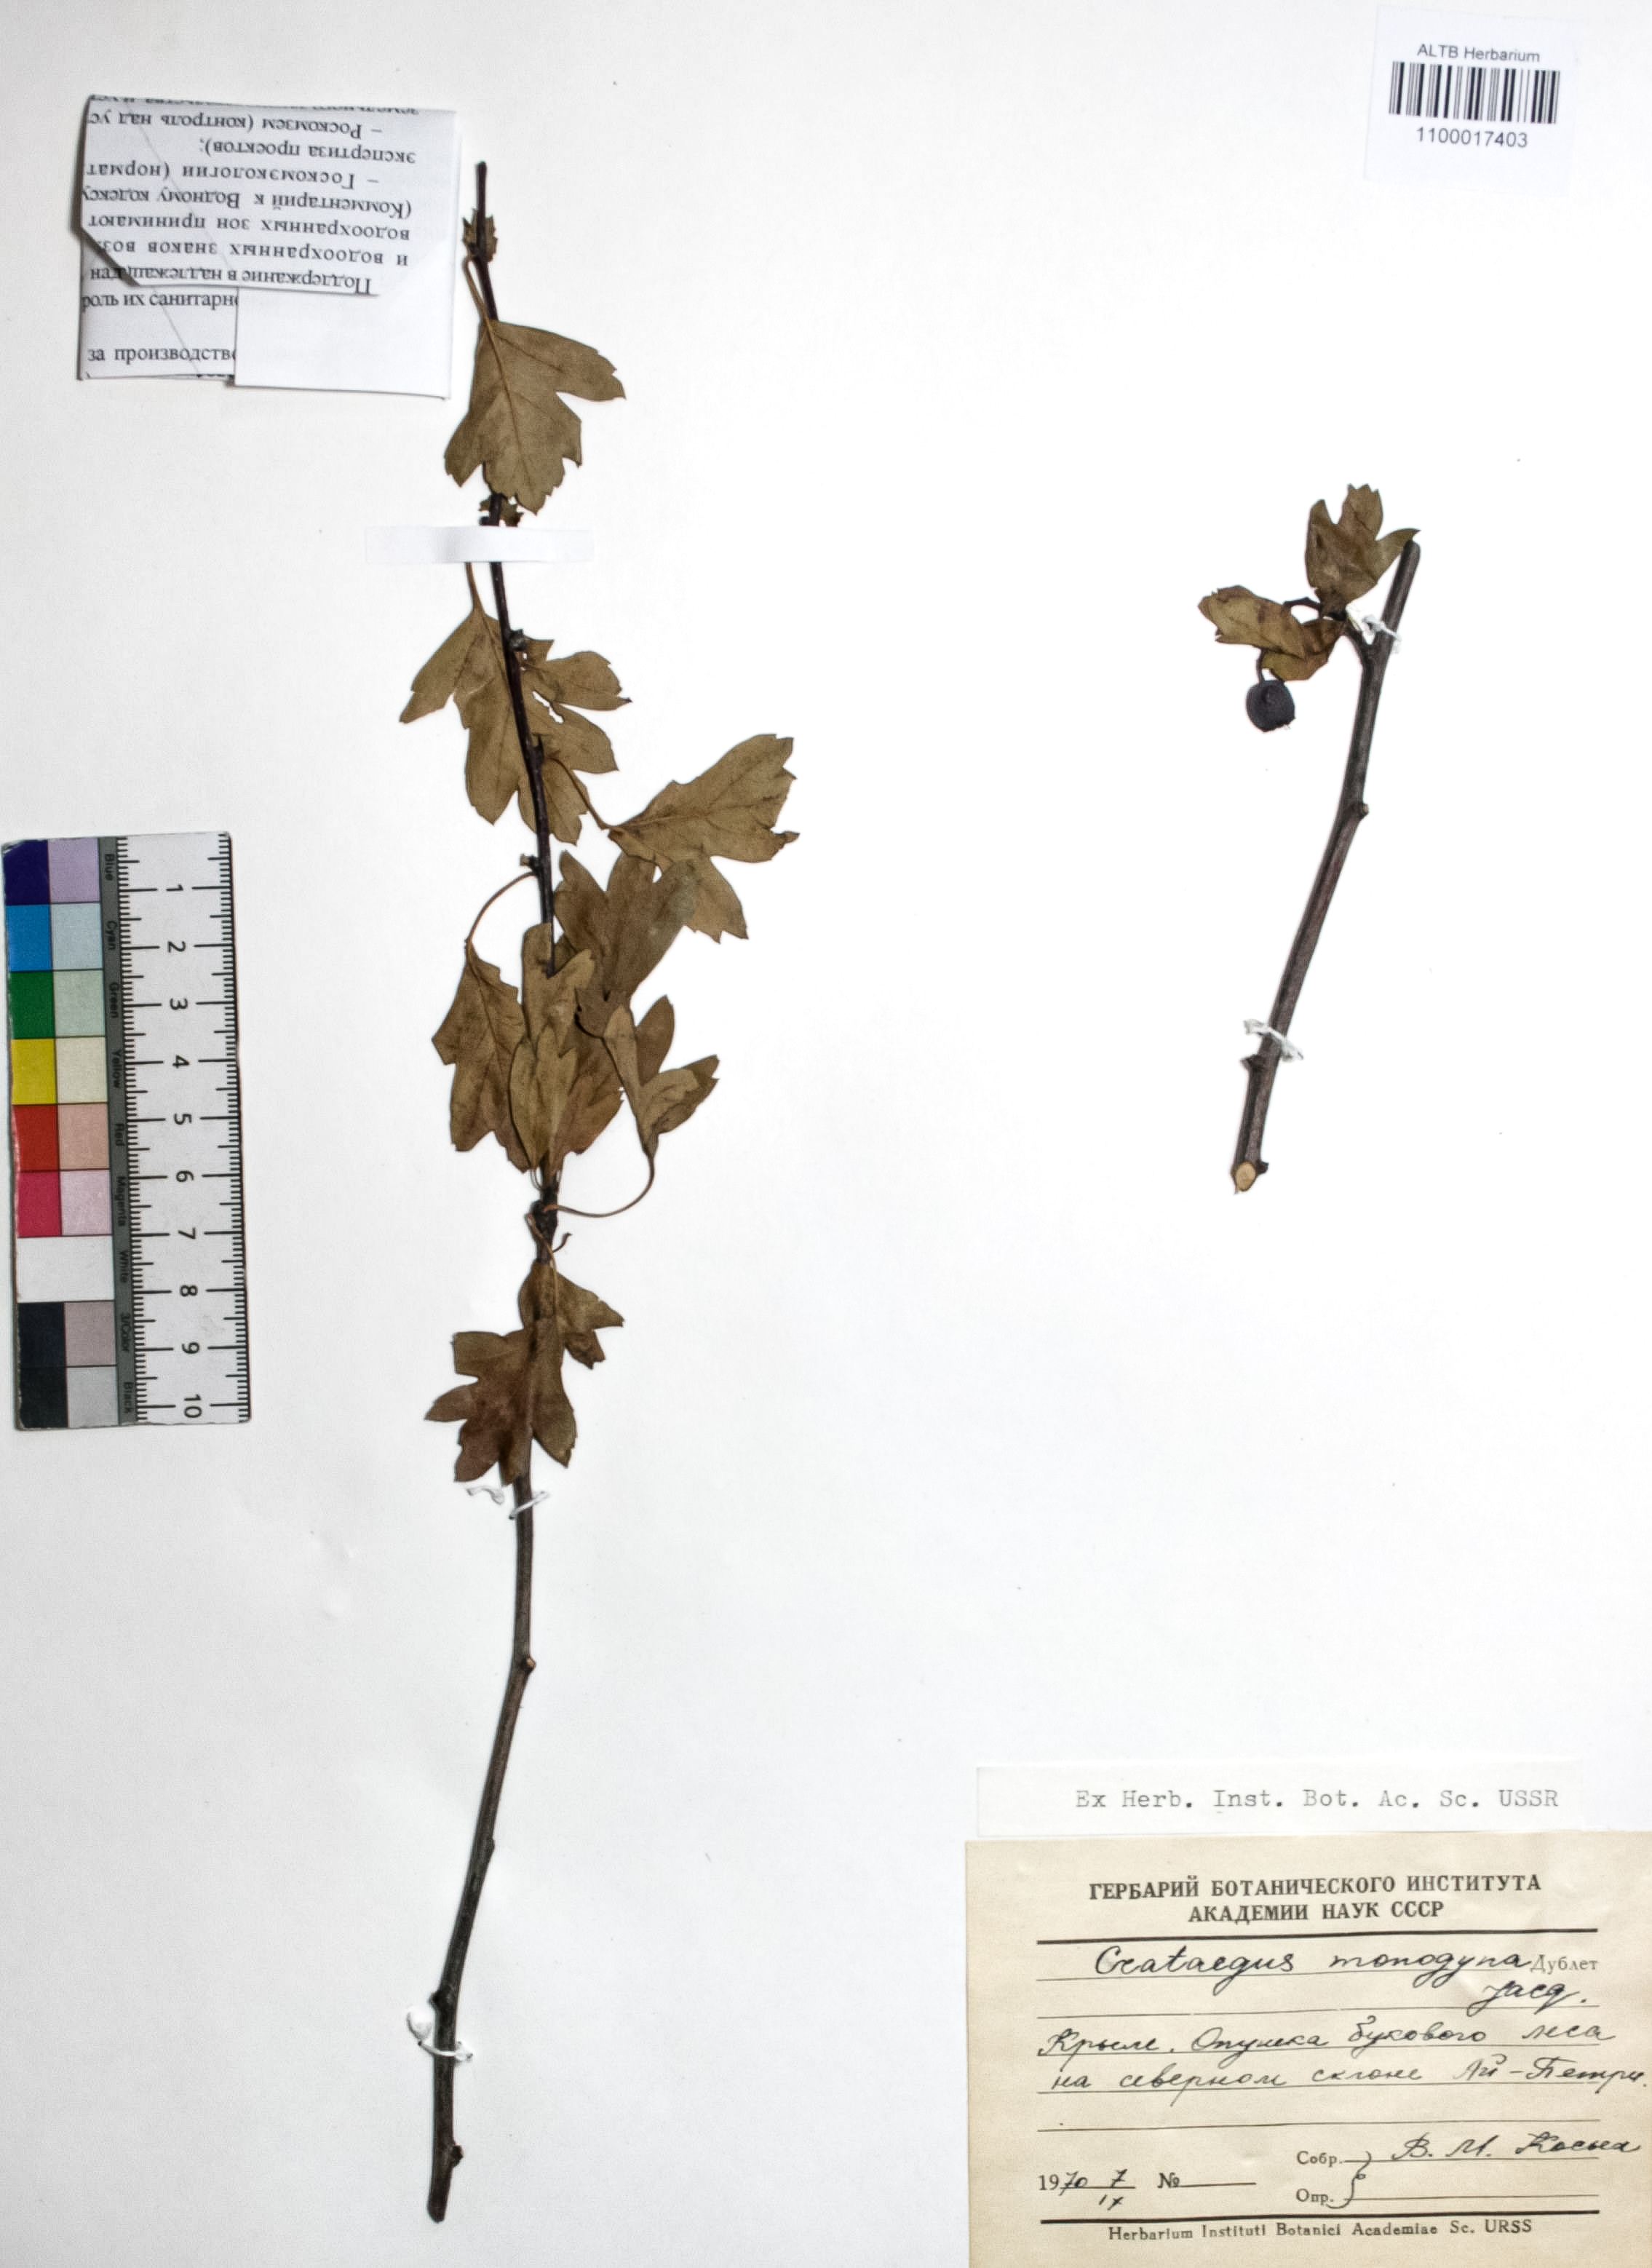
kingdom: Plantae
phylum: Tracheophyta
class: Magnoliopsida
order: Rosales
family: Rosaceae
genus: Crataegus
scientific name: Crataegus monogyna
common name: Hawthorn
